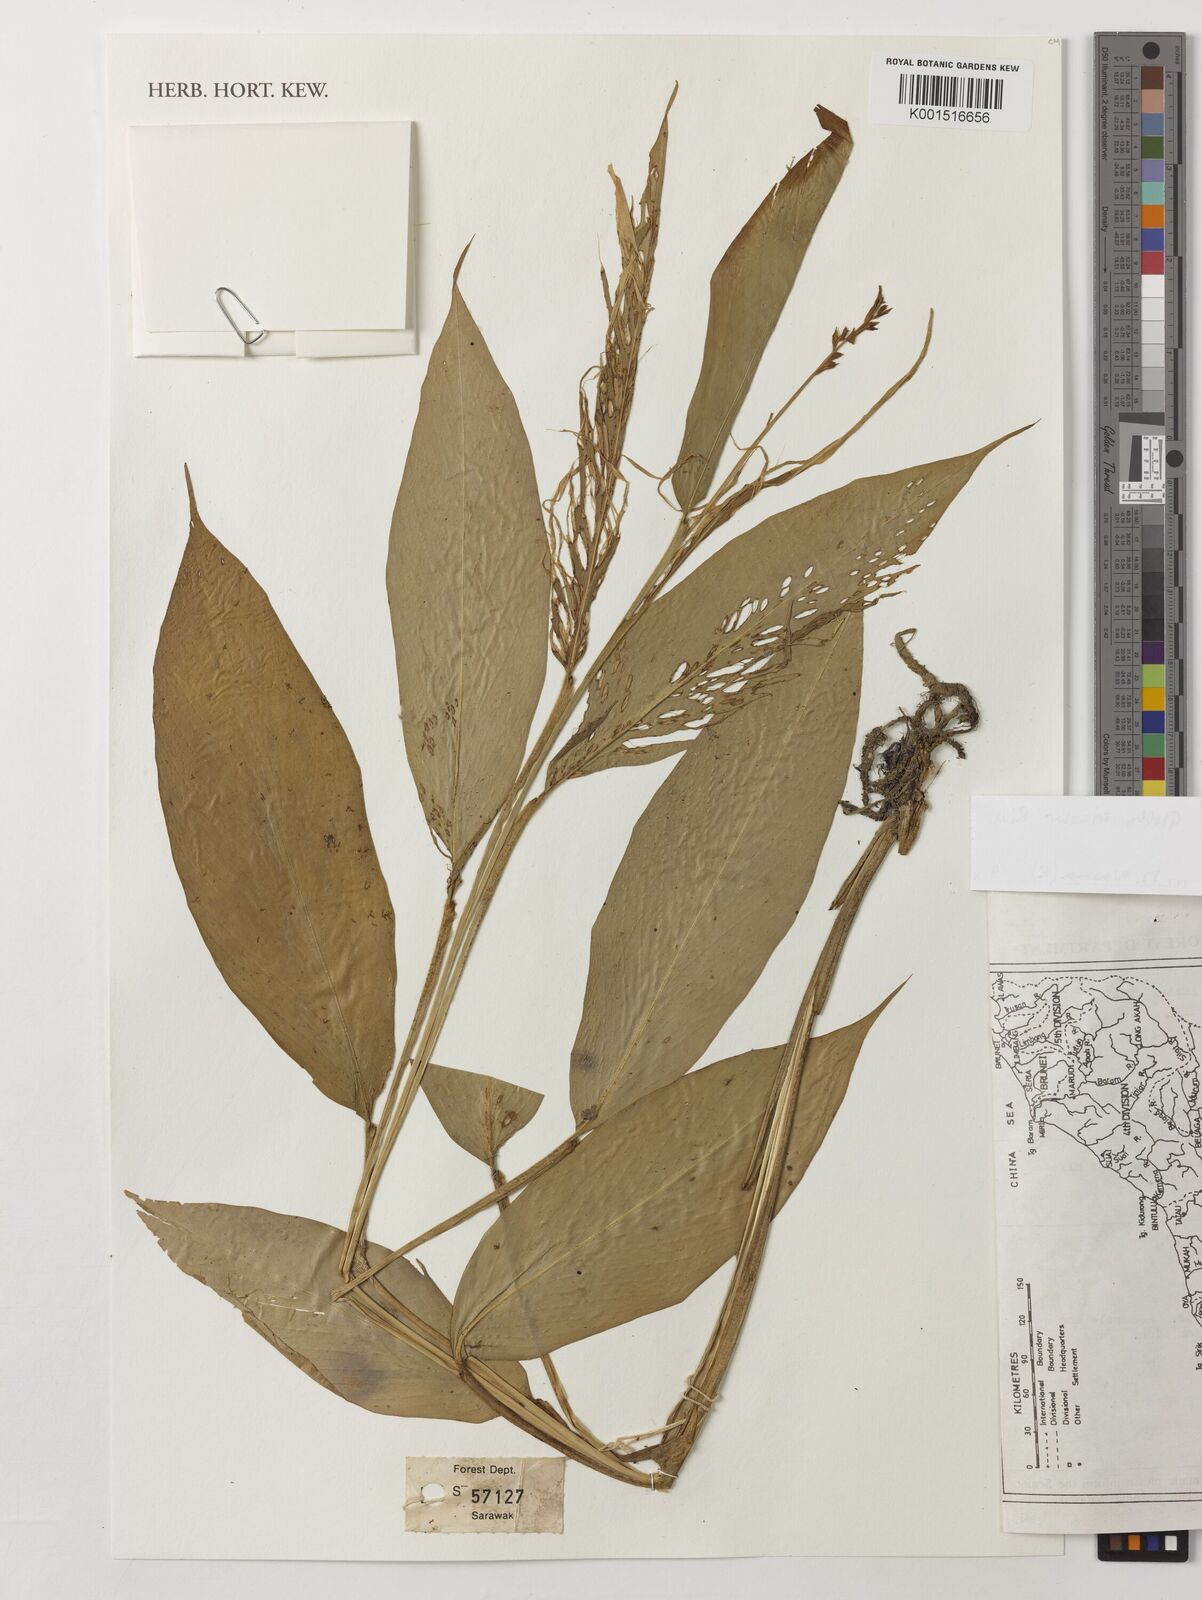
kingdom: Plantae
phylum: Tracheophyta
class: Liliopsida
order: Zingiberales
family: Zingiberaceae
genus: Globba
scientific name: Globba tricolor
